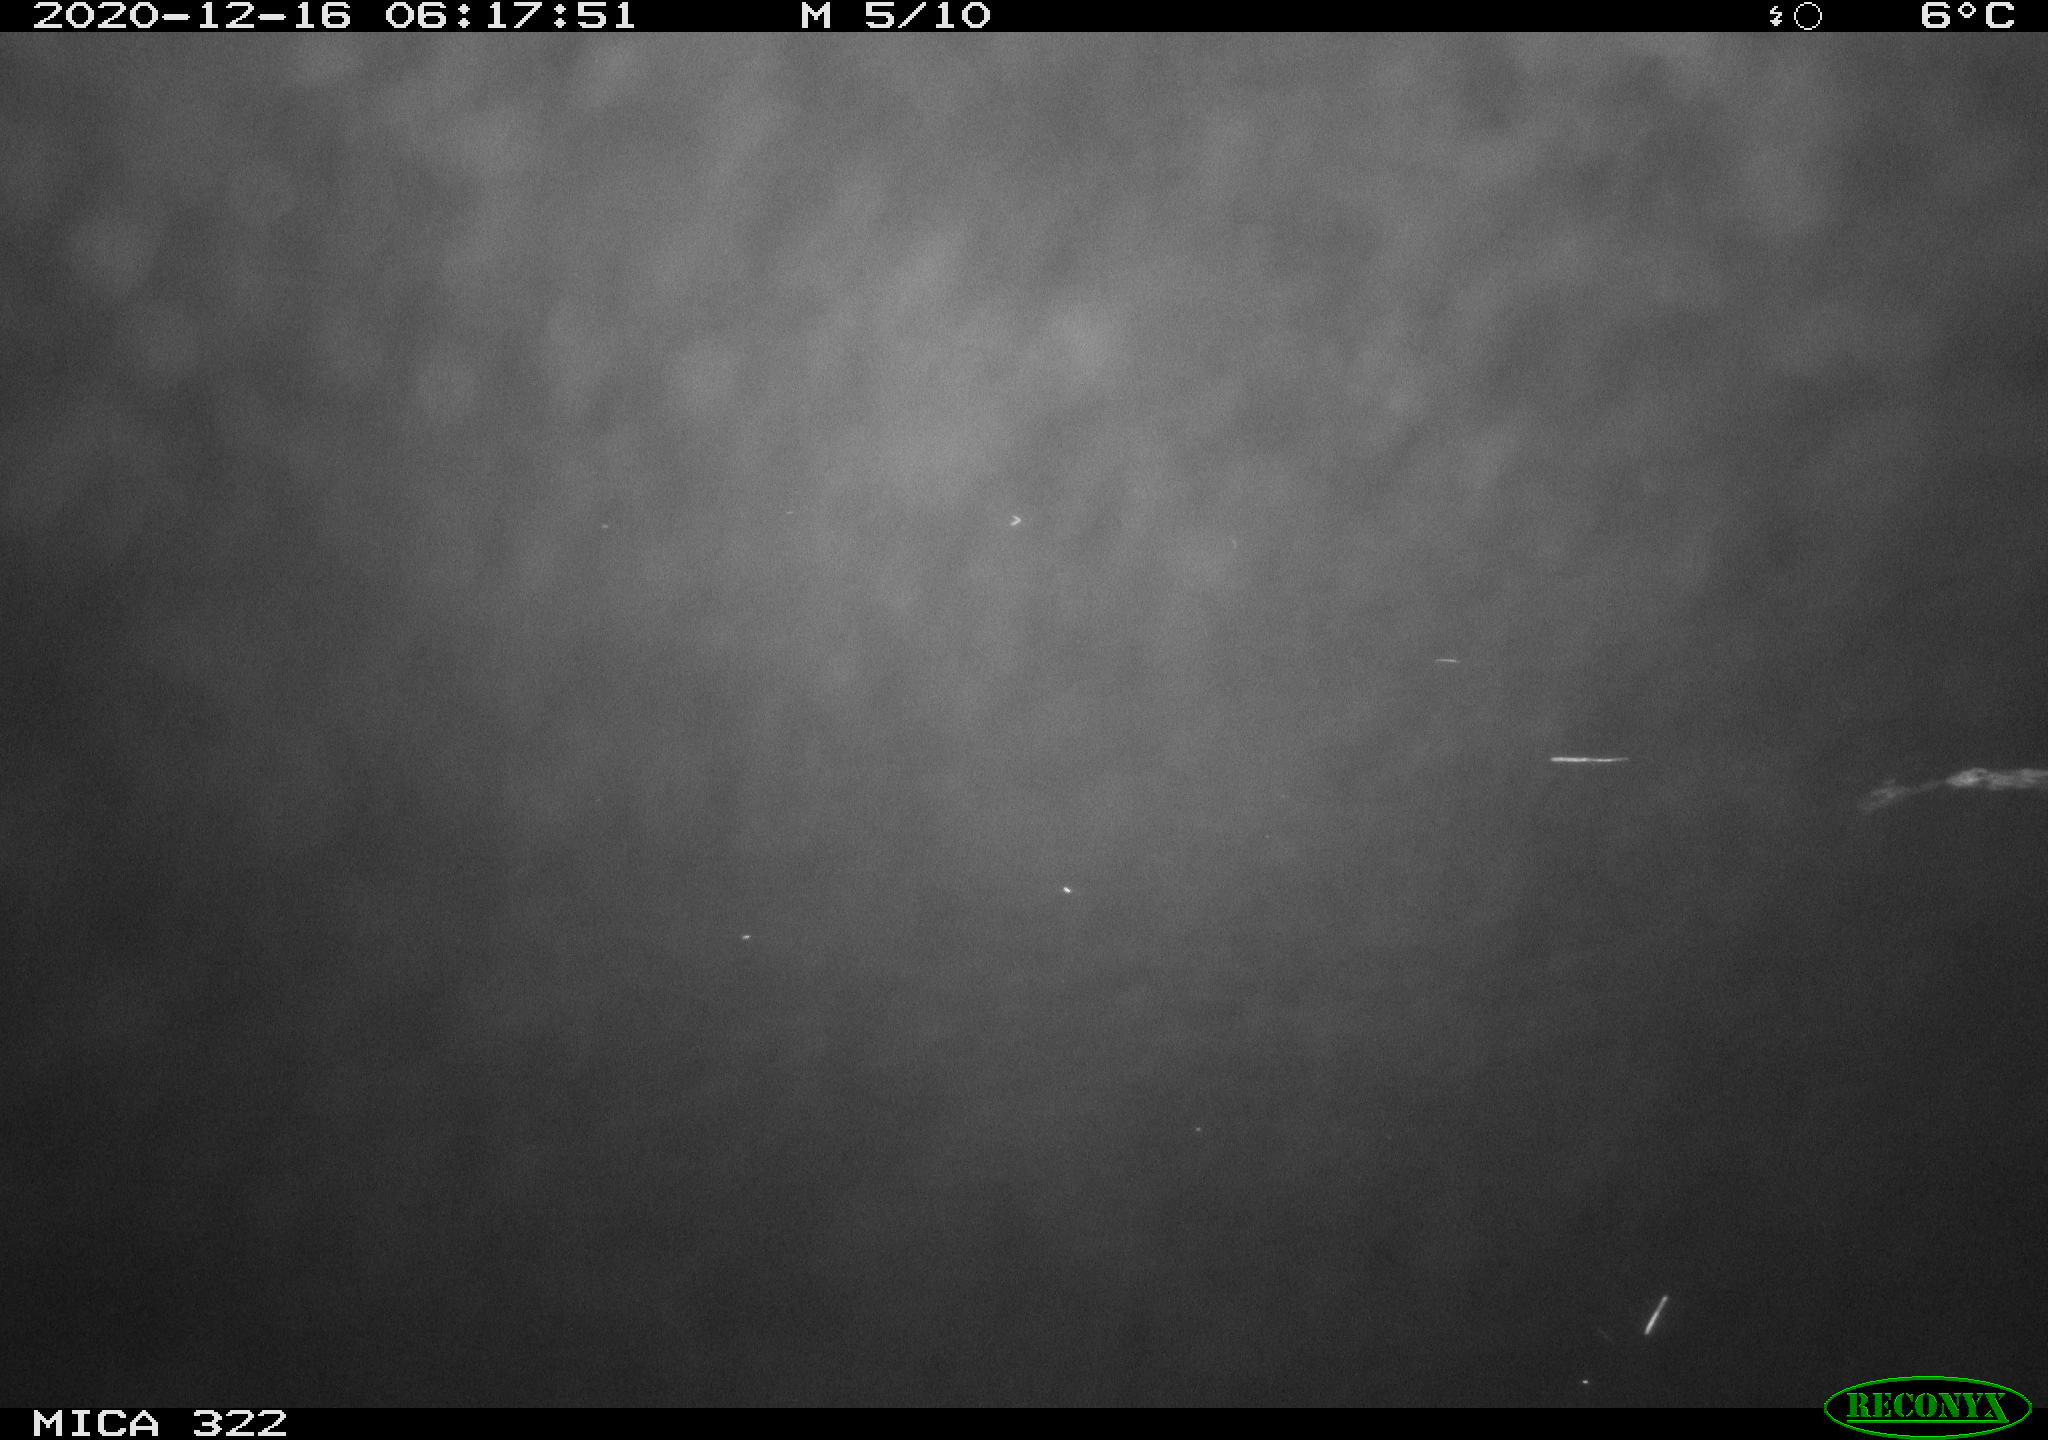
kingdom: Animalia
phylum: Chordata
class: Mammalia
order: Rodentia
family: Muridae
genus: Rattus
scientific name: Rattus norvegicus
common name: Brown rat
